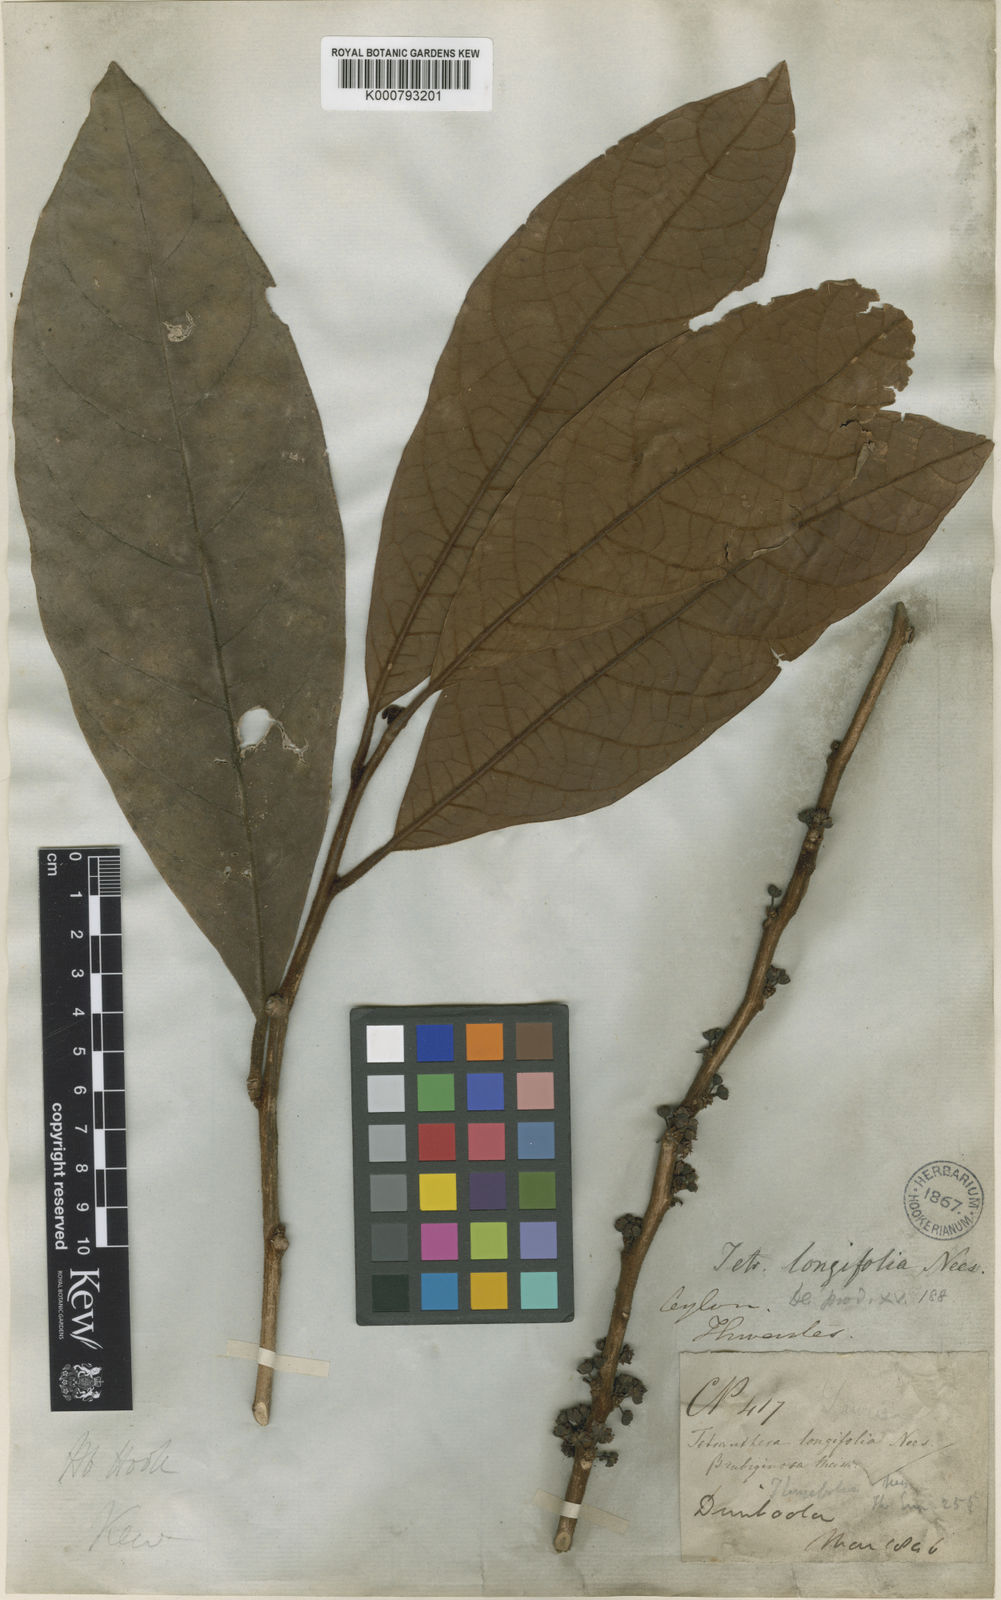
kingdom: Plantae
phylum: Tracheophyta
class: Magnoliopsida
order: Laurales
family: Lauraceae
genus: Litsea
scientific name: Litsea ligustrina
